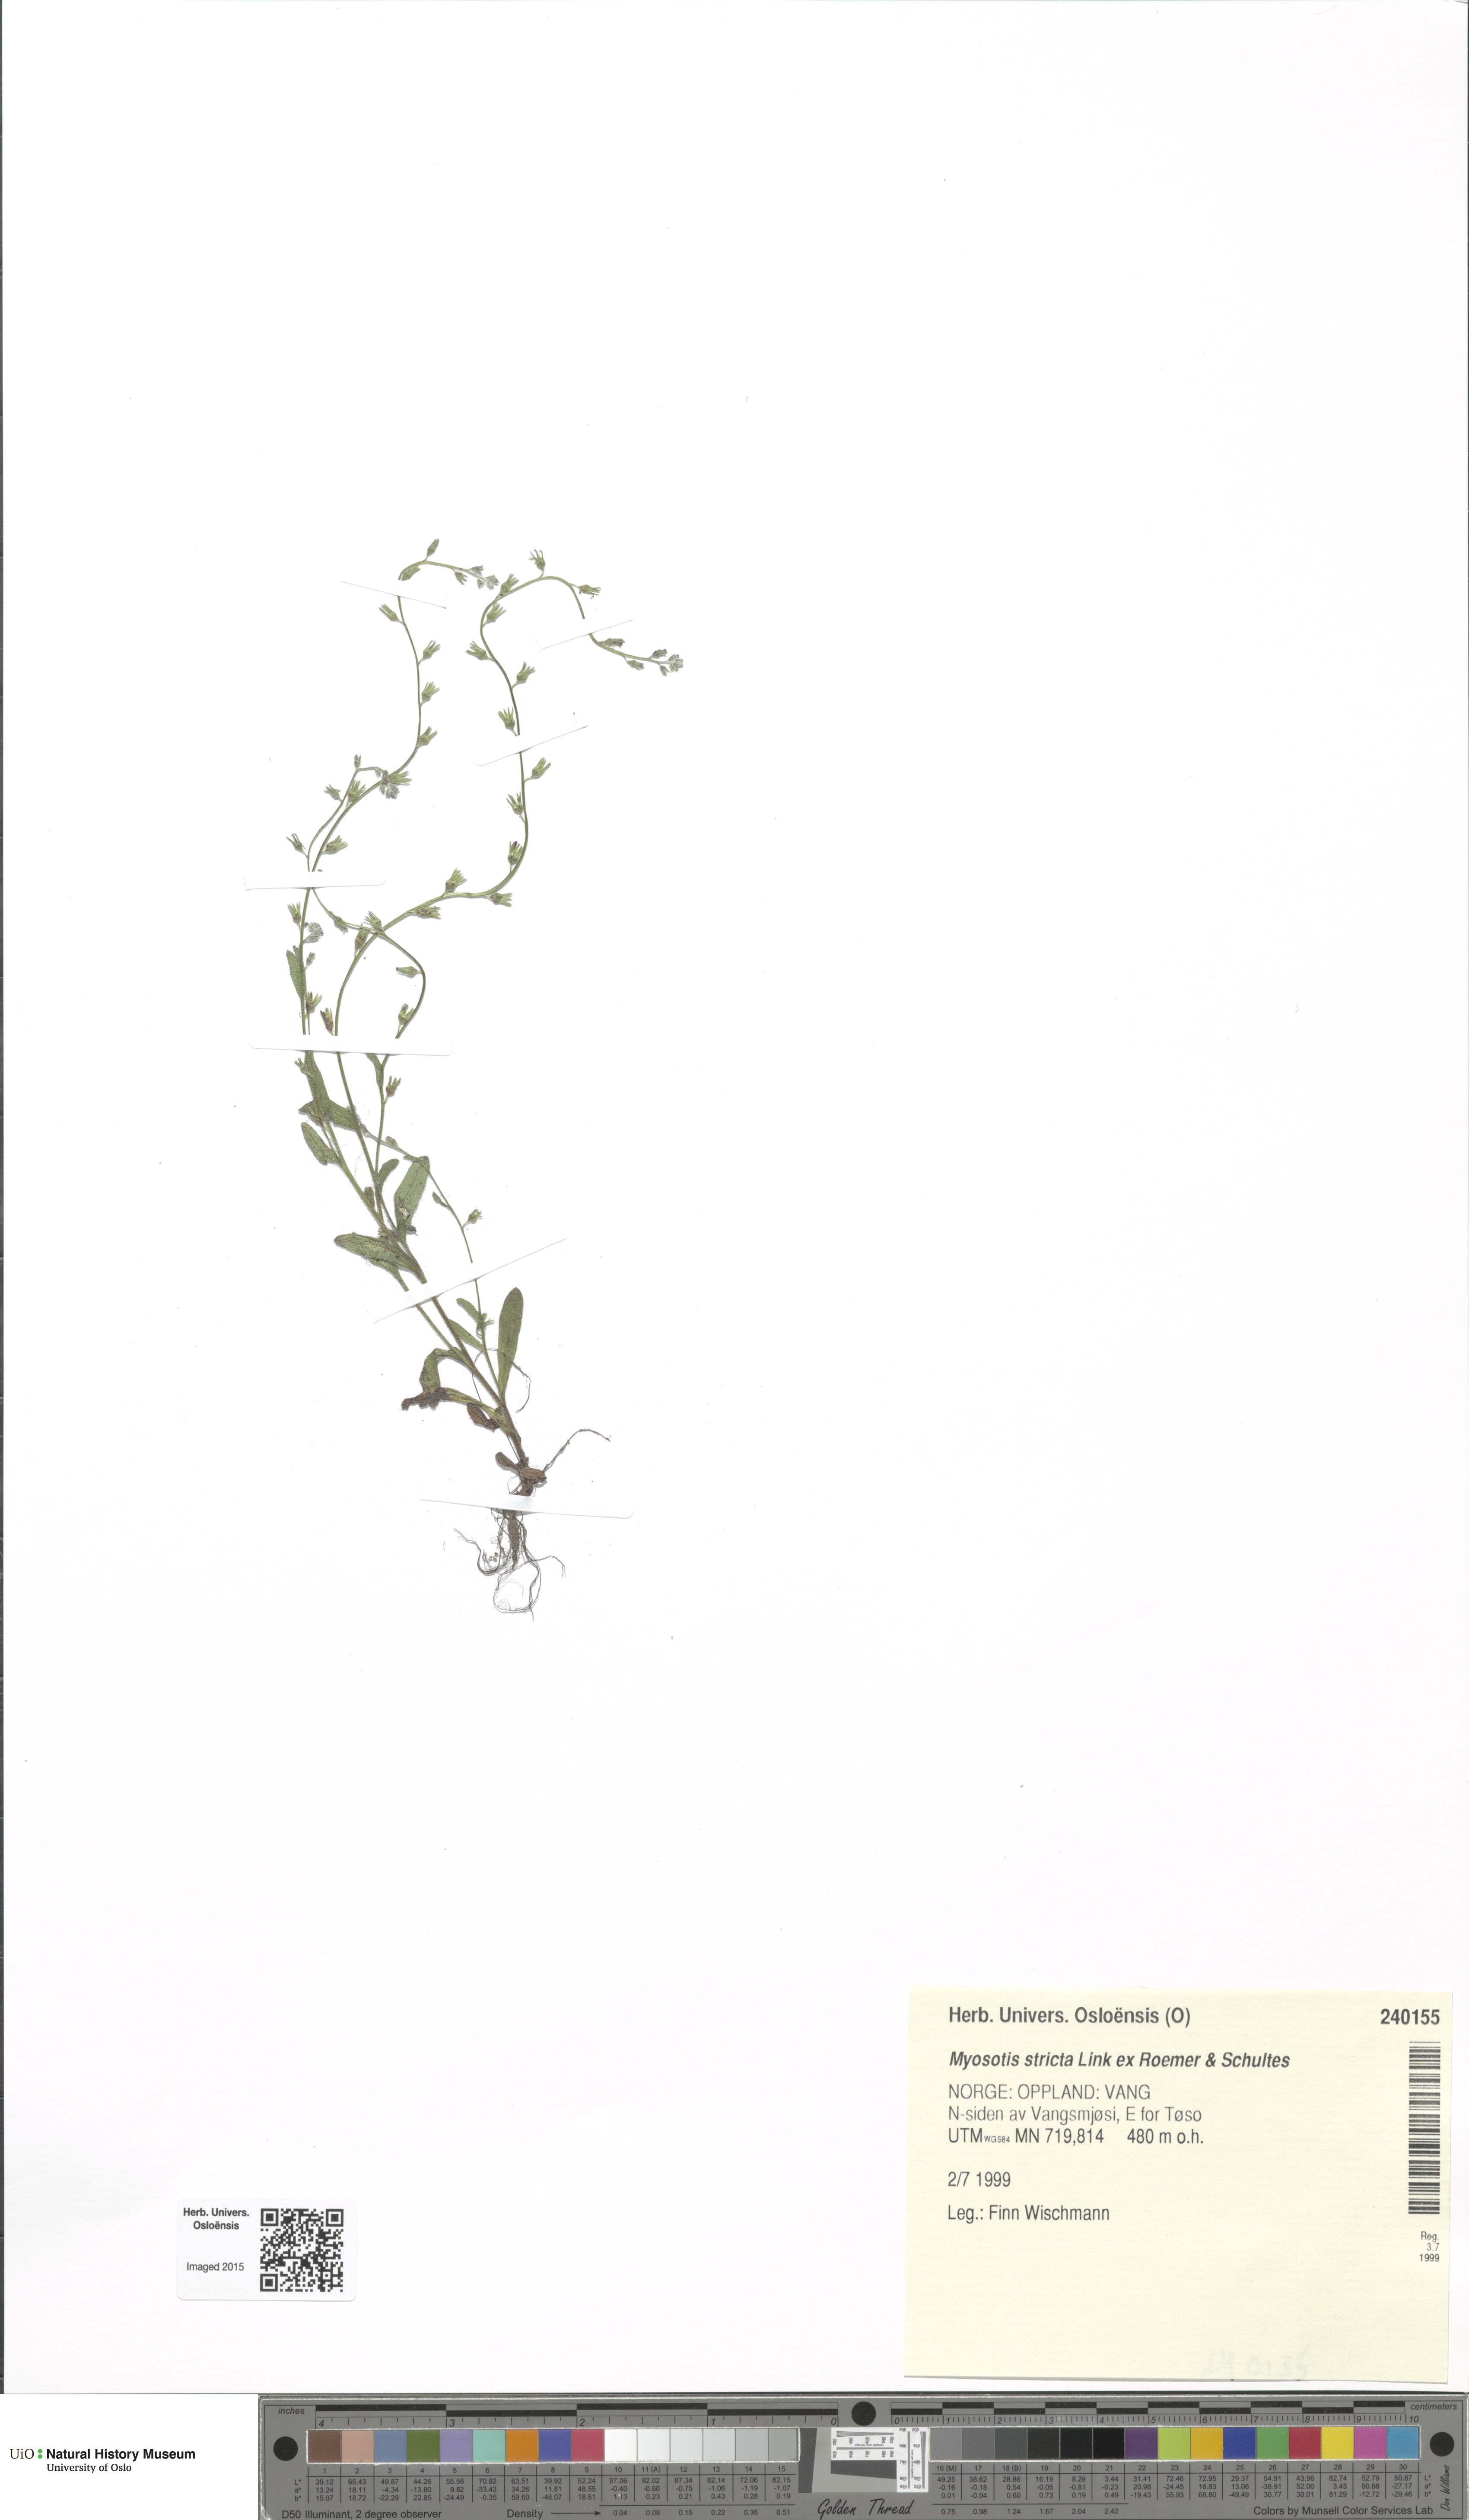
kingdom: Plantae
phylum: Tracheophyta
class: Magnoliopsida
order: Boraginales
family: Boraginaceae
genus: Myosotis
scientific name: Myosotis stricta
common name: Strict forget-me-not
